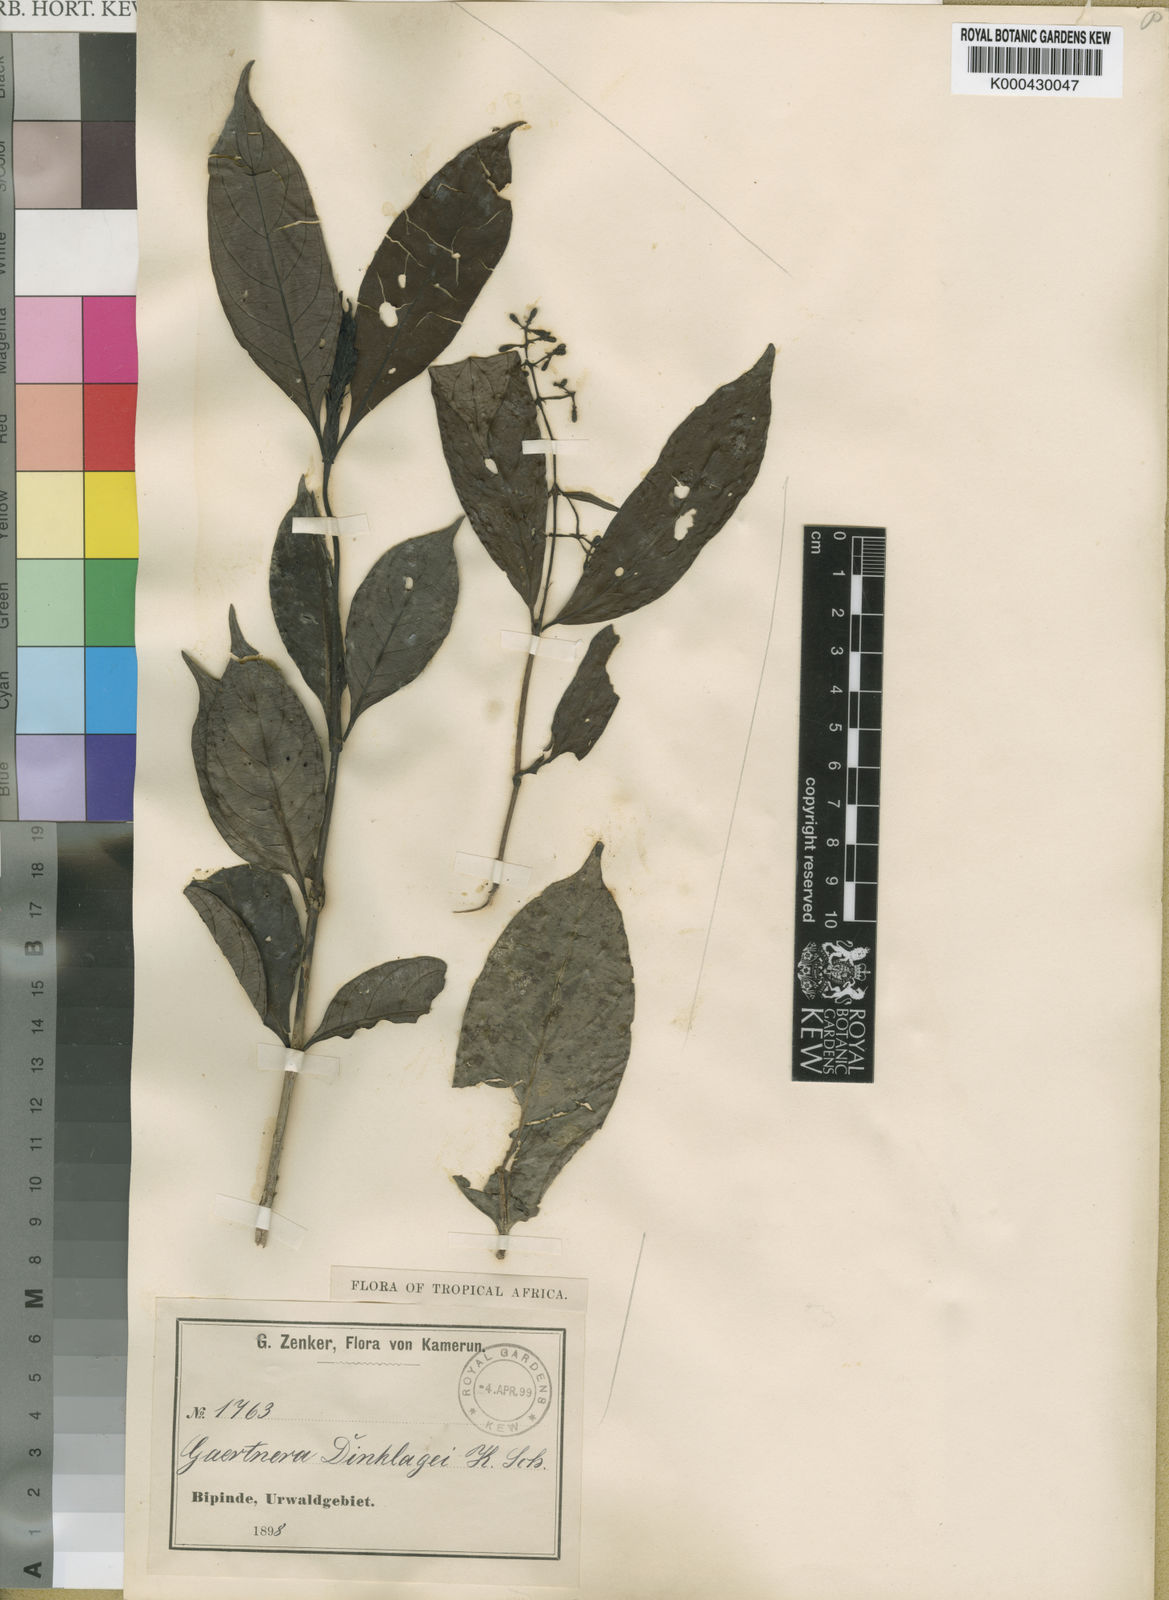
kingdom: Plantae
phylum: Tracheophyta
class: Magnoliopsida
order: Gentianales
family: Rubiaceae
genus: Gaertnera
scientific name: Gaertnera trachystyla
